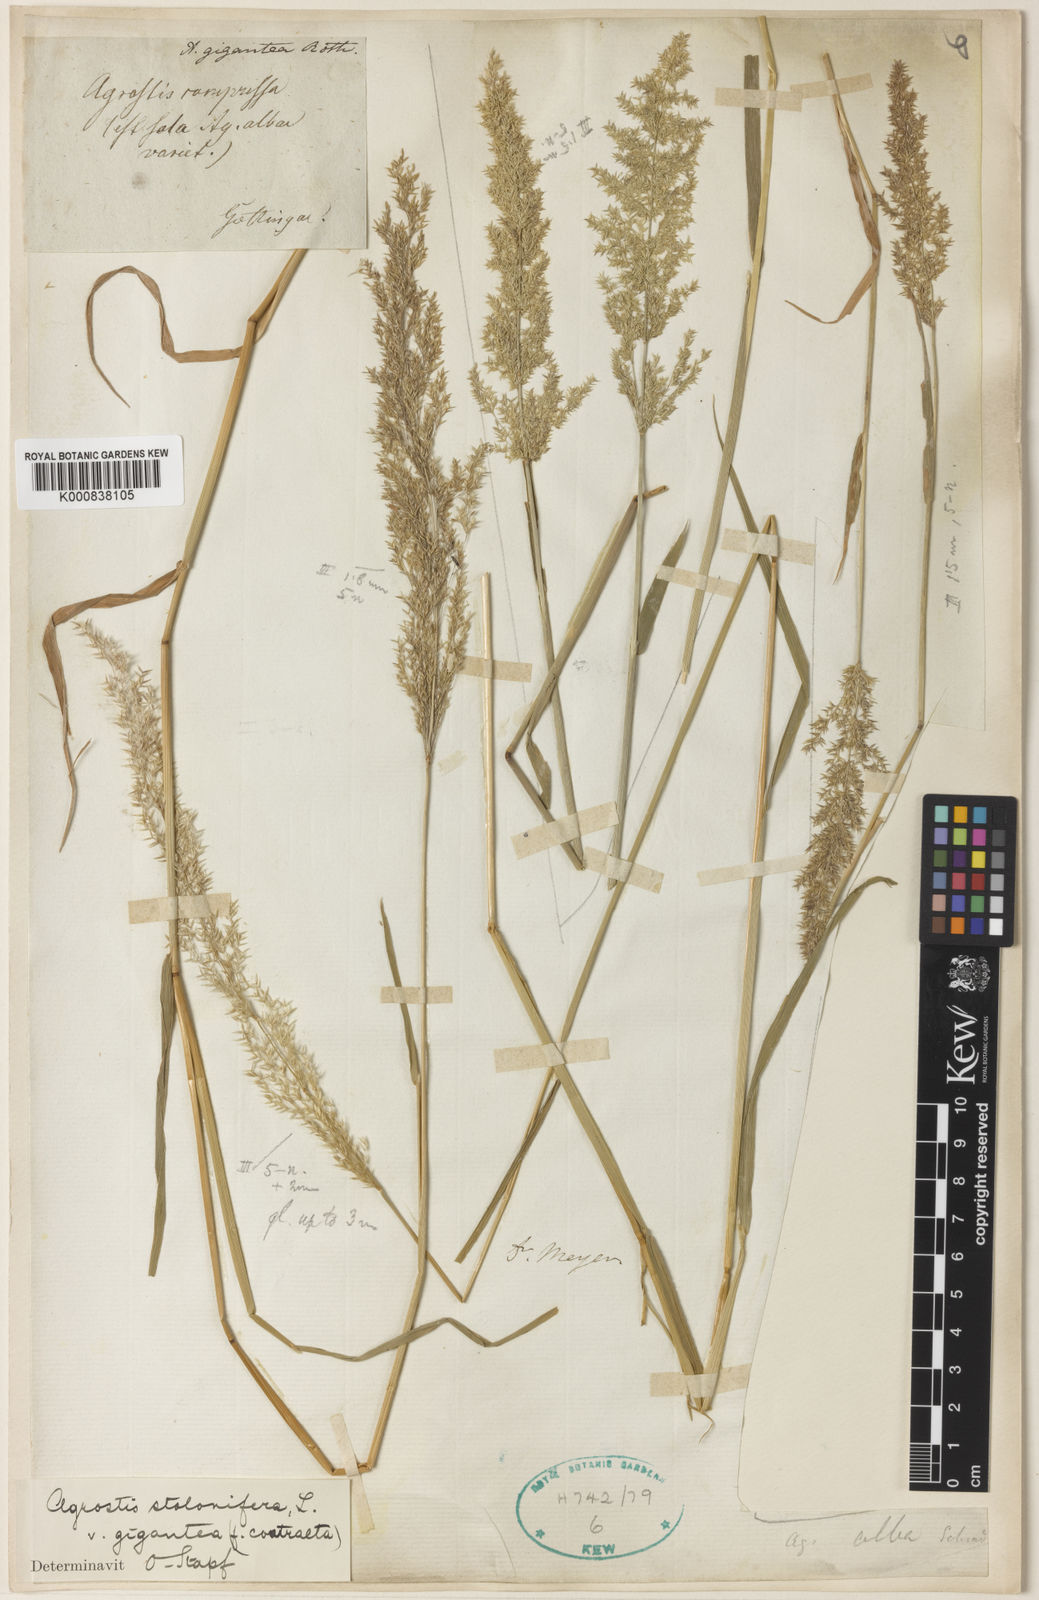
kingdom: Plantae
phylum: Tracheophyta
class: Liliopsida
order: Poales
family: Poaceae
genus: Agrostis
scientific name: Agrostis gigantea
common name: Black bent
